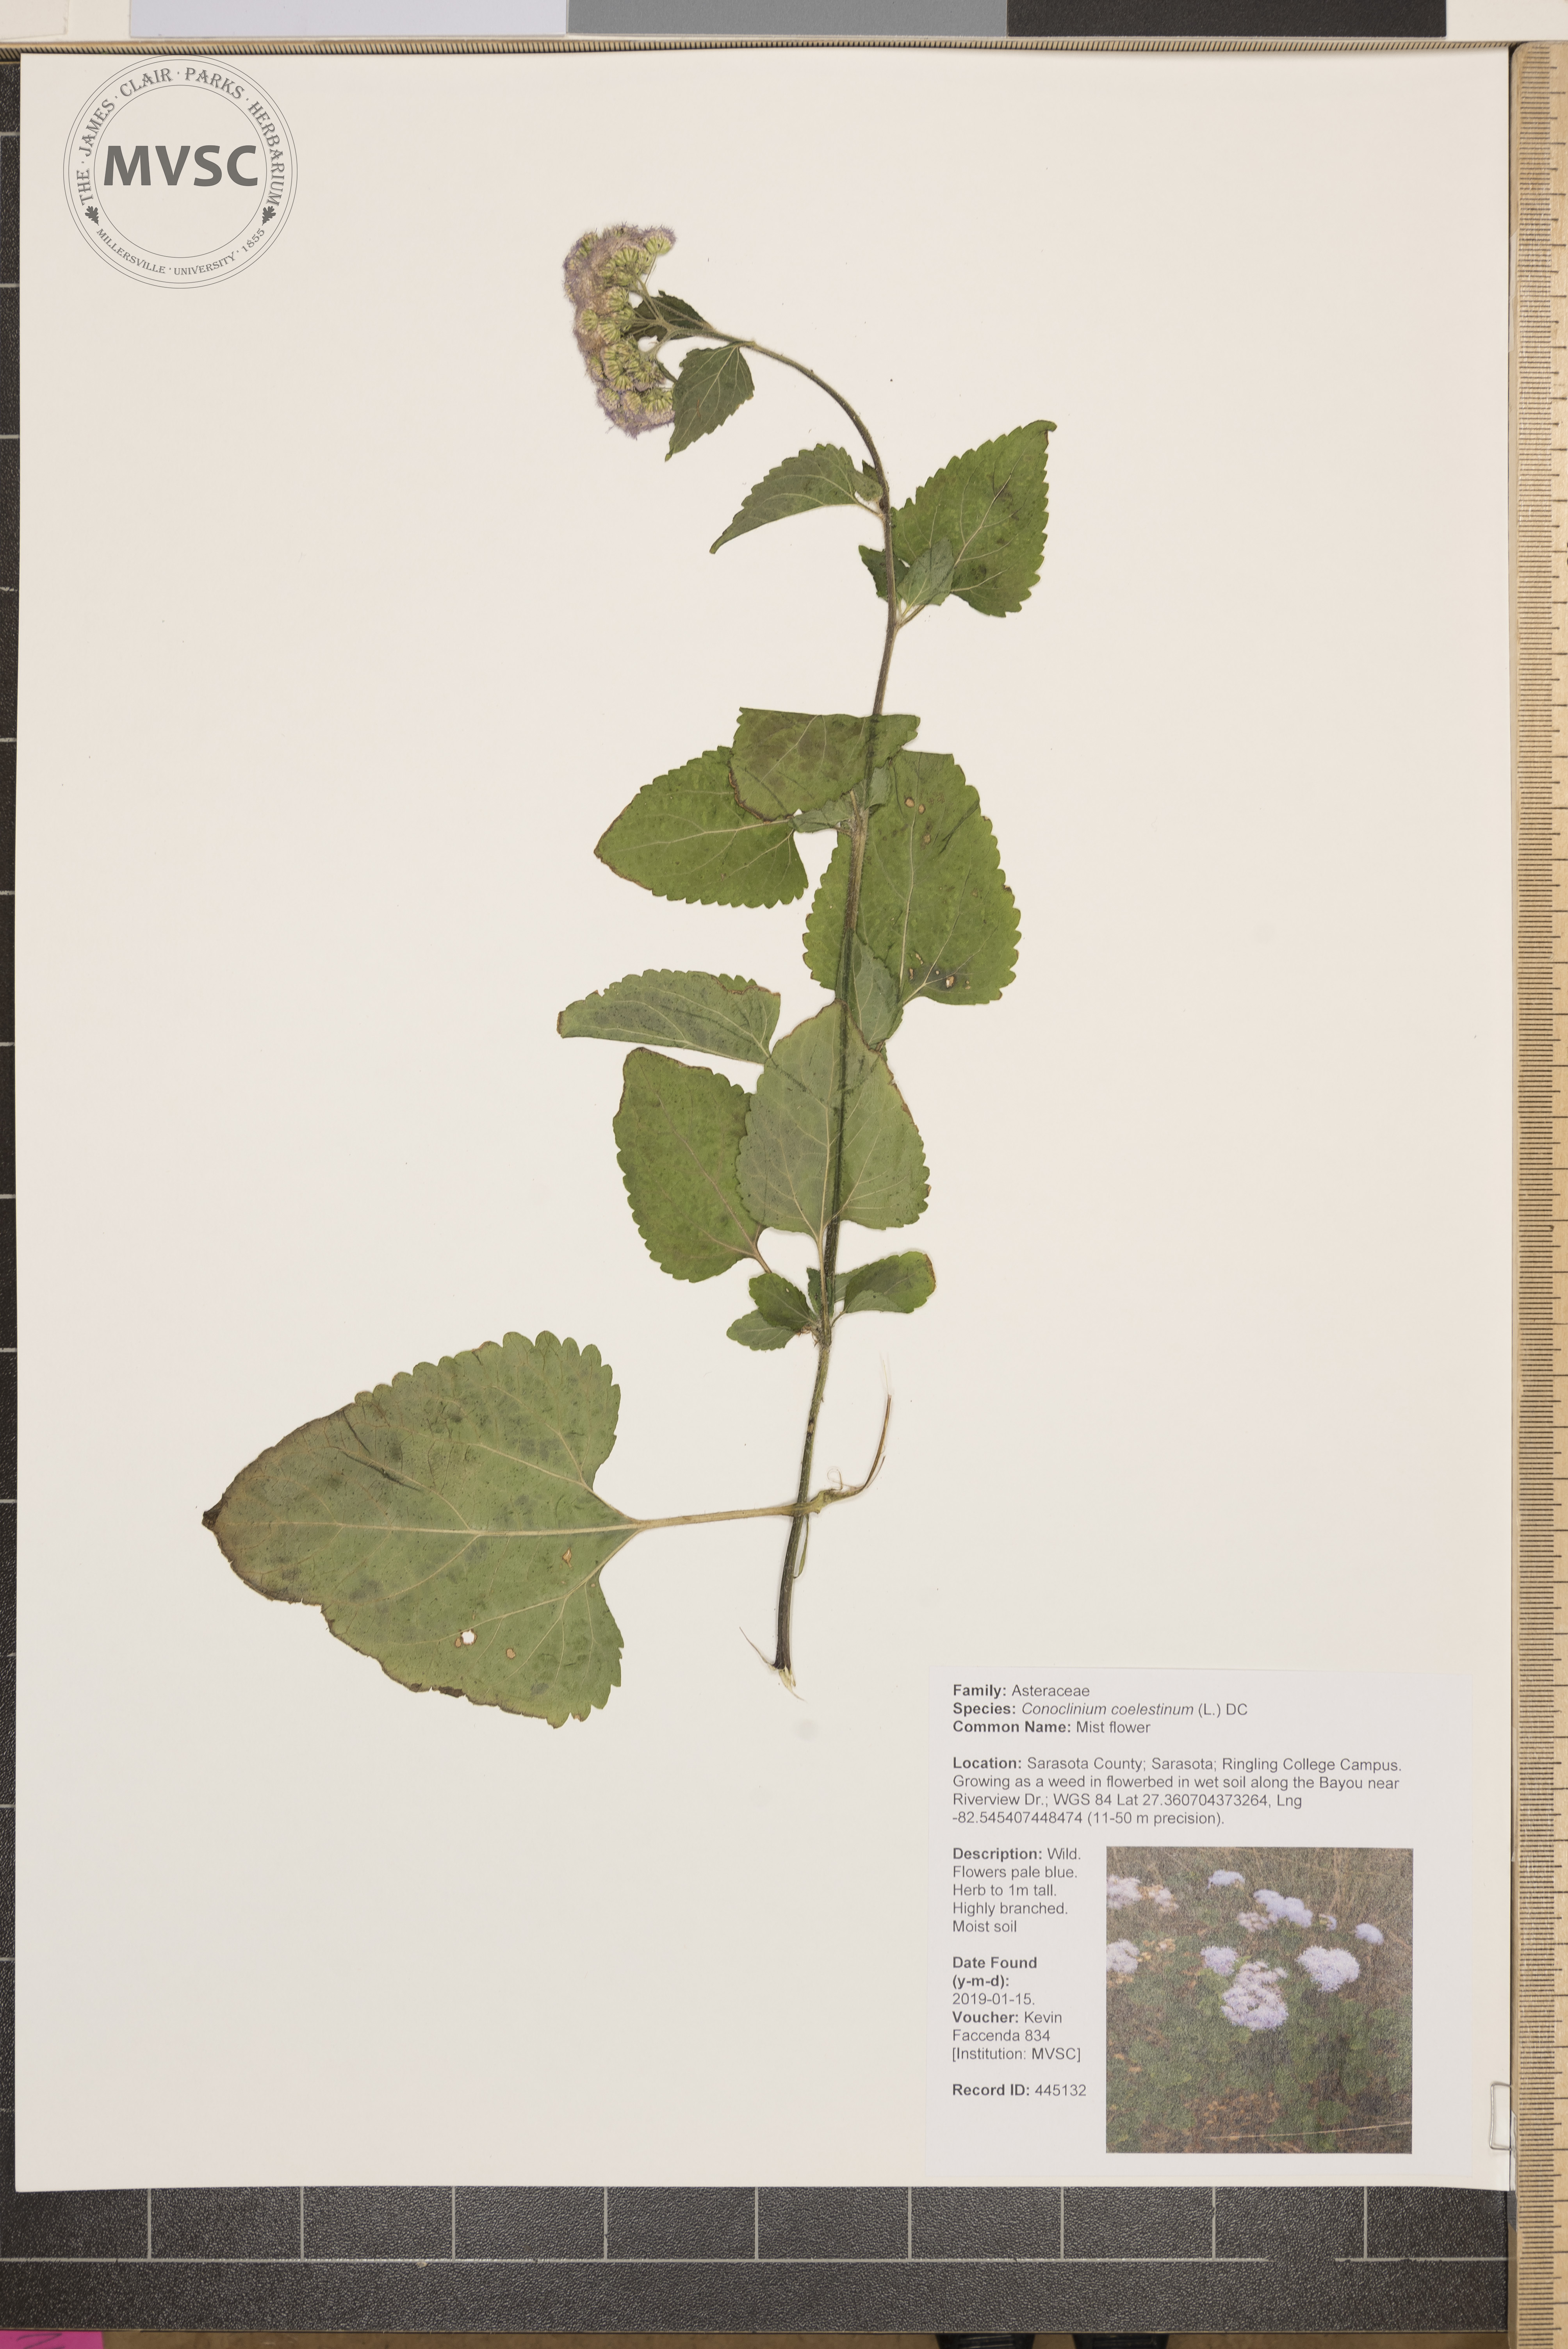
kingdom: Plantae
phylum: Tracheophyta
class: Magnoliopsida
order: Asterales
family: Asteraceae
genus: Conoclinium
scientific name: Conoclinium coelestinum
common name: Mist flower
